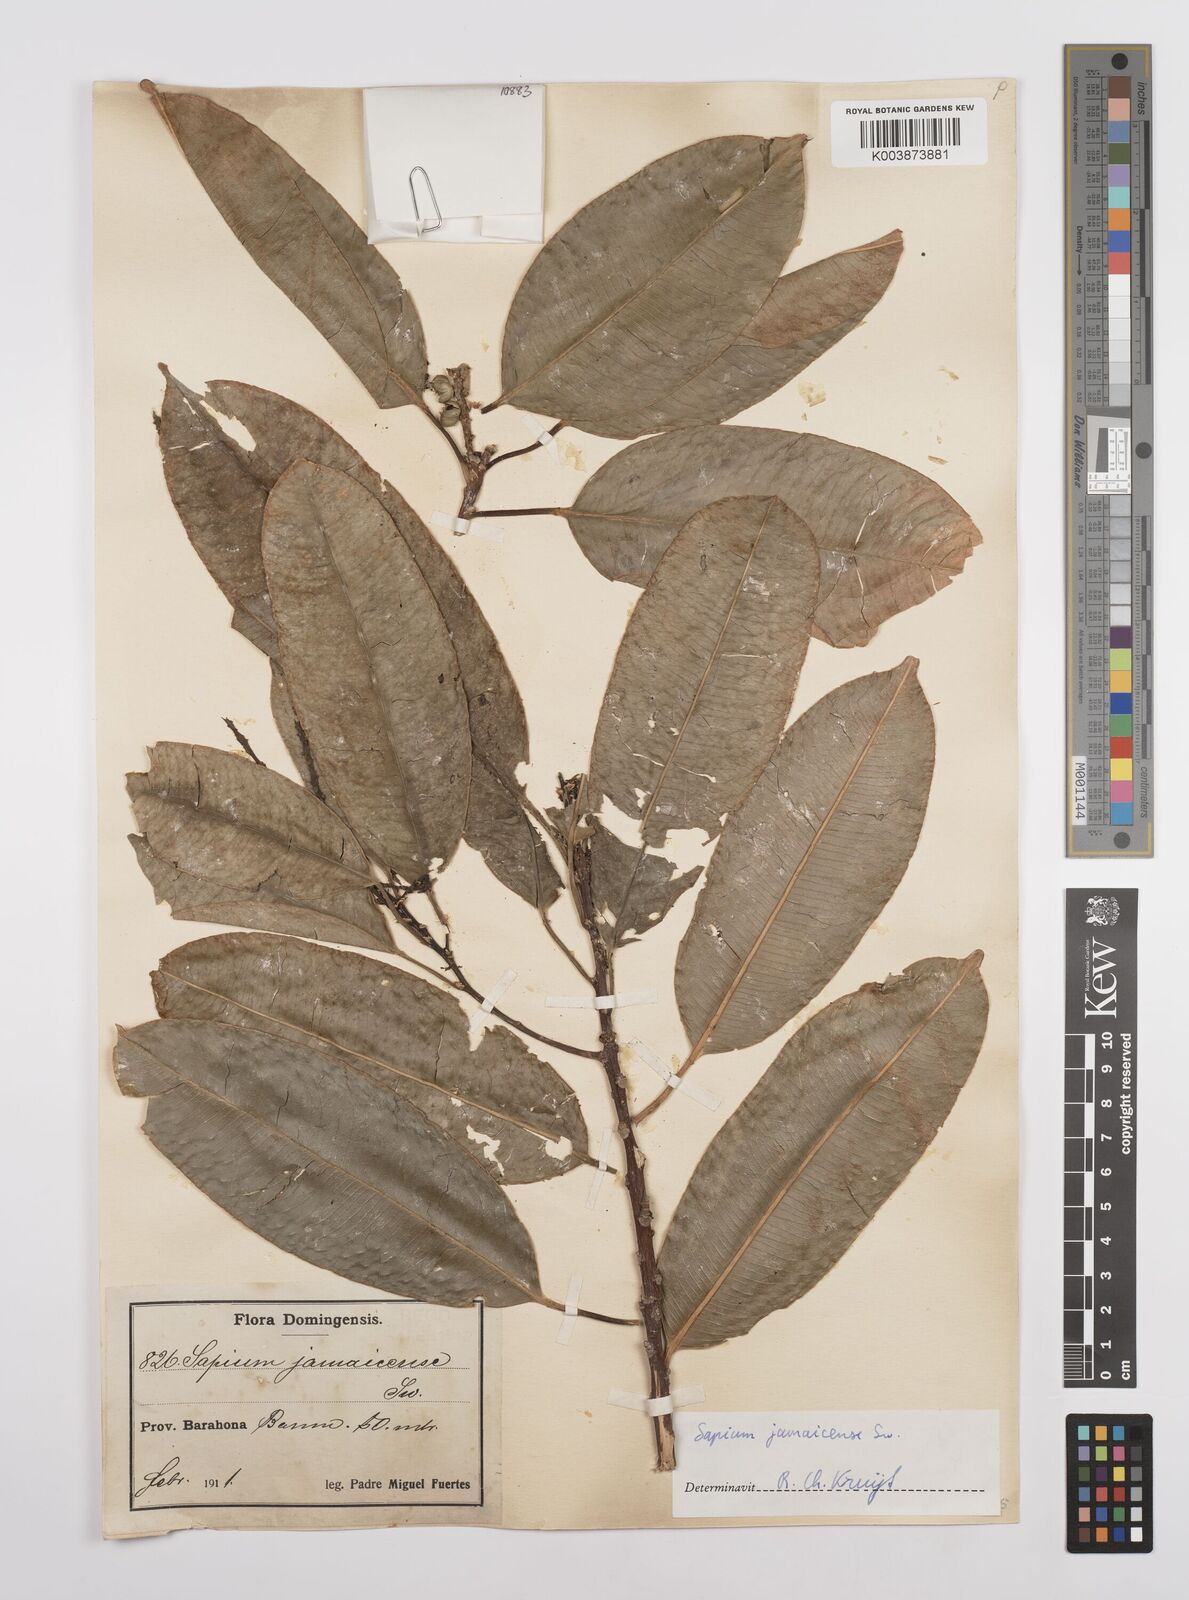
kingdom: Plantae
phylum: Tracheophyta
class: Magnoliopsida
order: Malpighiales
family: Euphorbiaceae
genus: Sapium
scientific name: Sapium glandulosum
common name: Milktree
